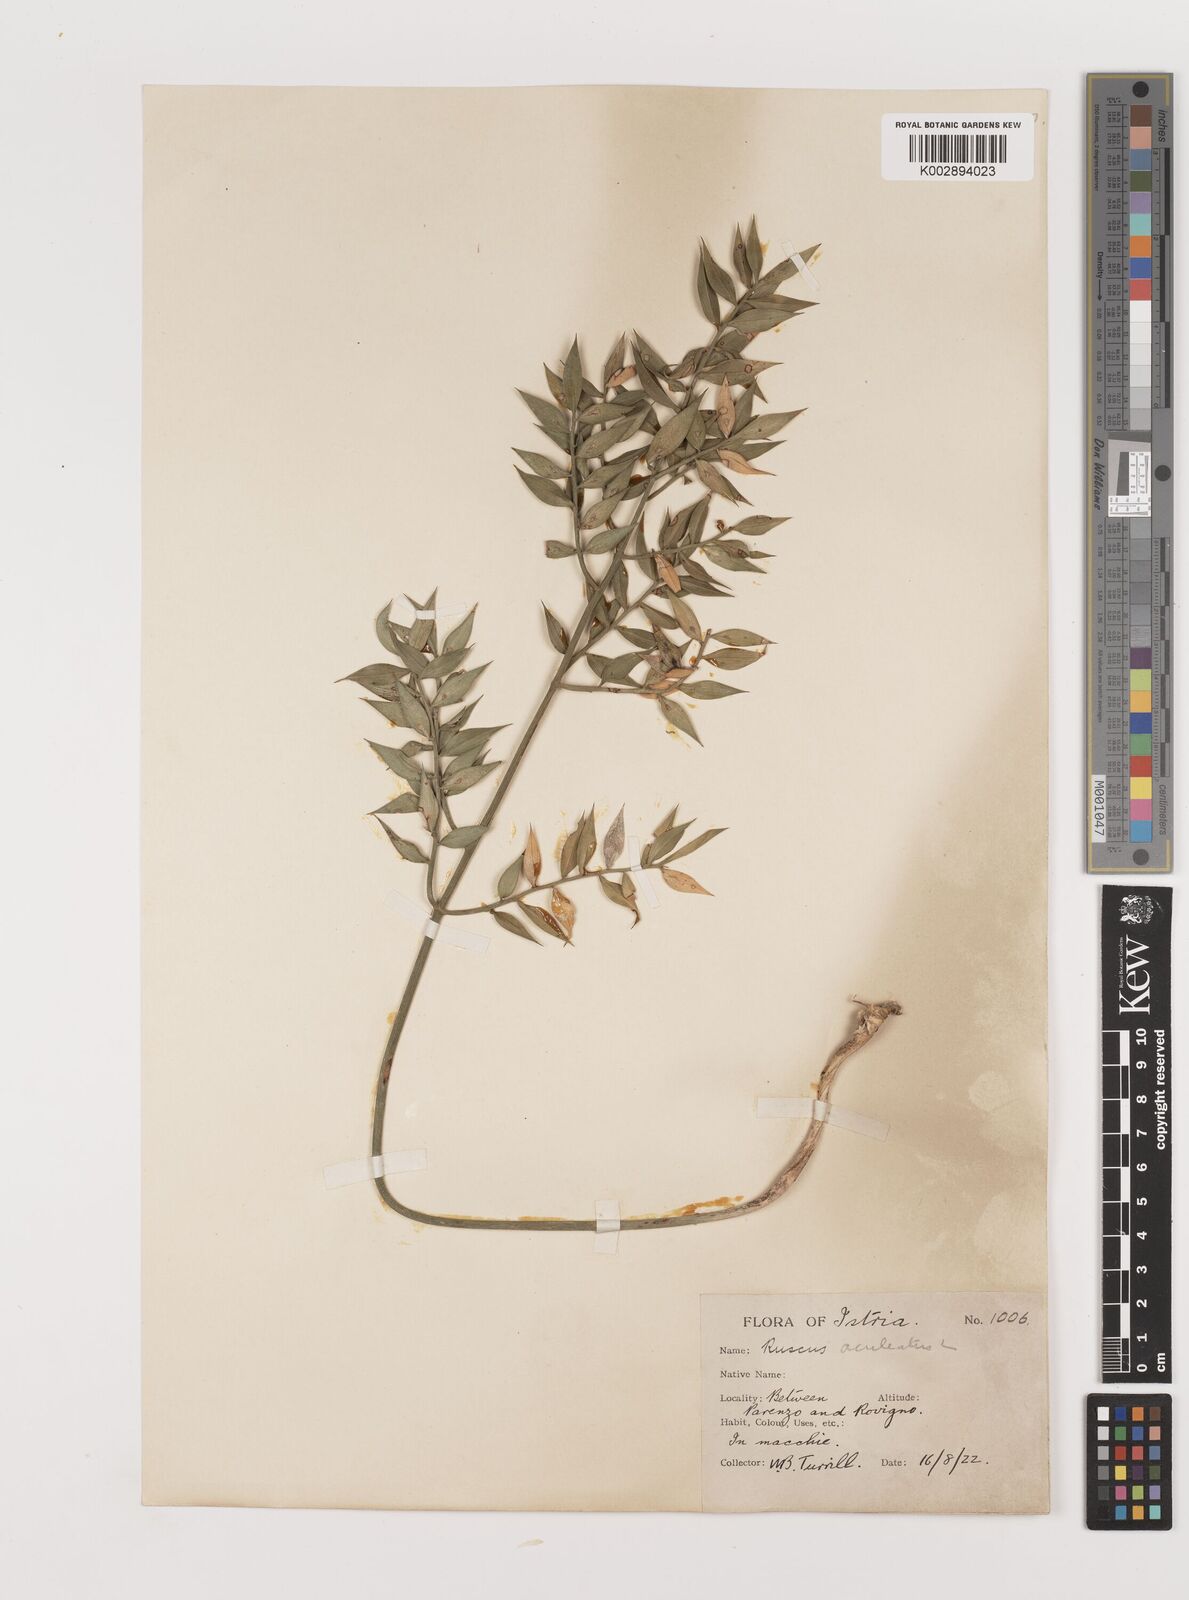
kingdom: Plantae
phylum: Tracheophyta
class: Liliopsida
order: Asparagales
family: Asparagaceae
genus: Ruscus
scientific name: Ruscus aculeatus
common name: Butcher's-broom
